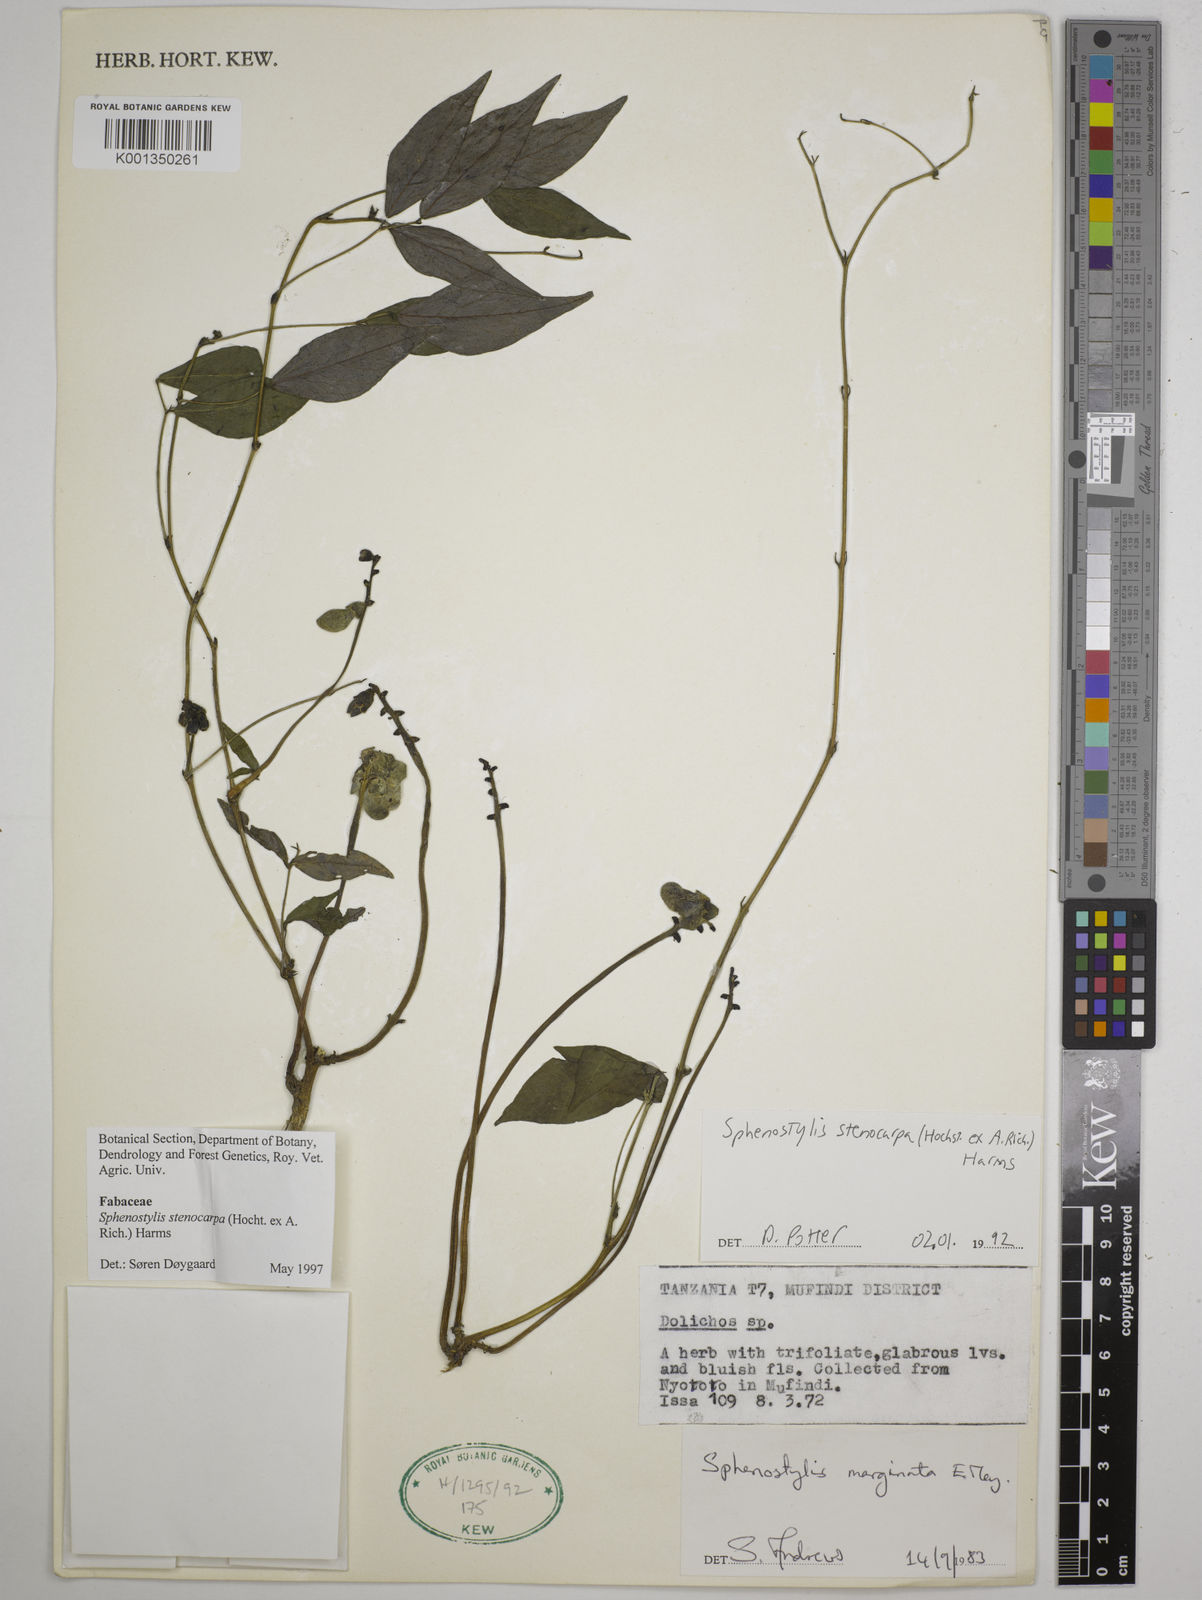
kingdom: Plantae
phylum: Tracheophyta
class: Magnoliopsida
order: Fabales
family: Fabaceae
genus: Sphenostylis
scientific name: Sphenostylis stenocarpa
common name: Yam-pea
